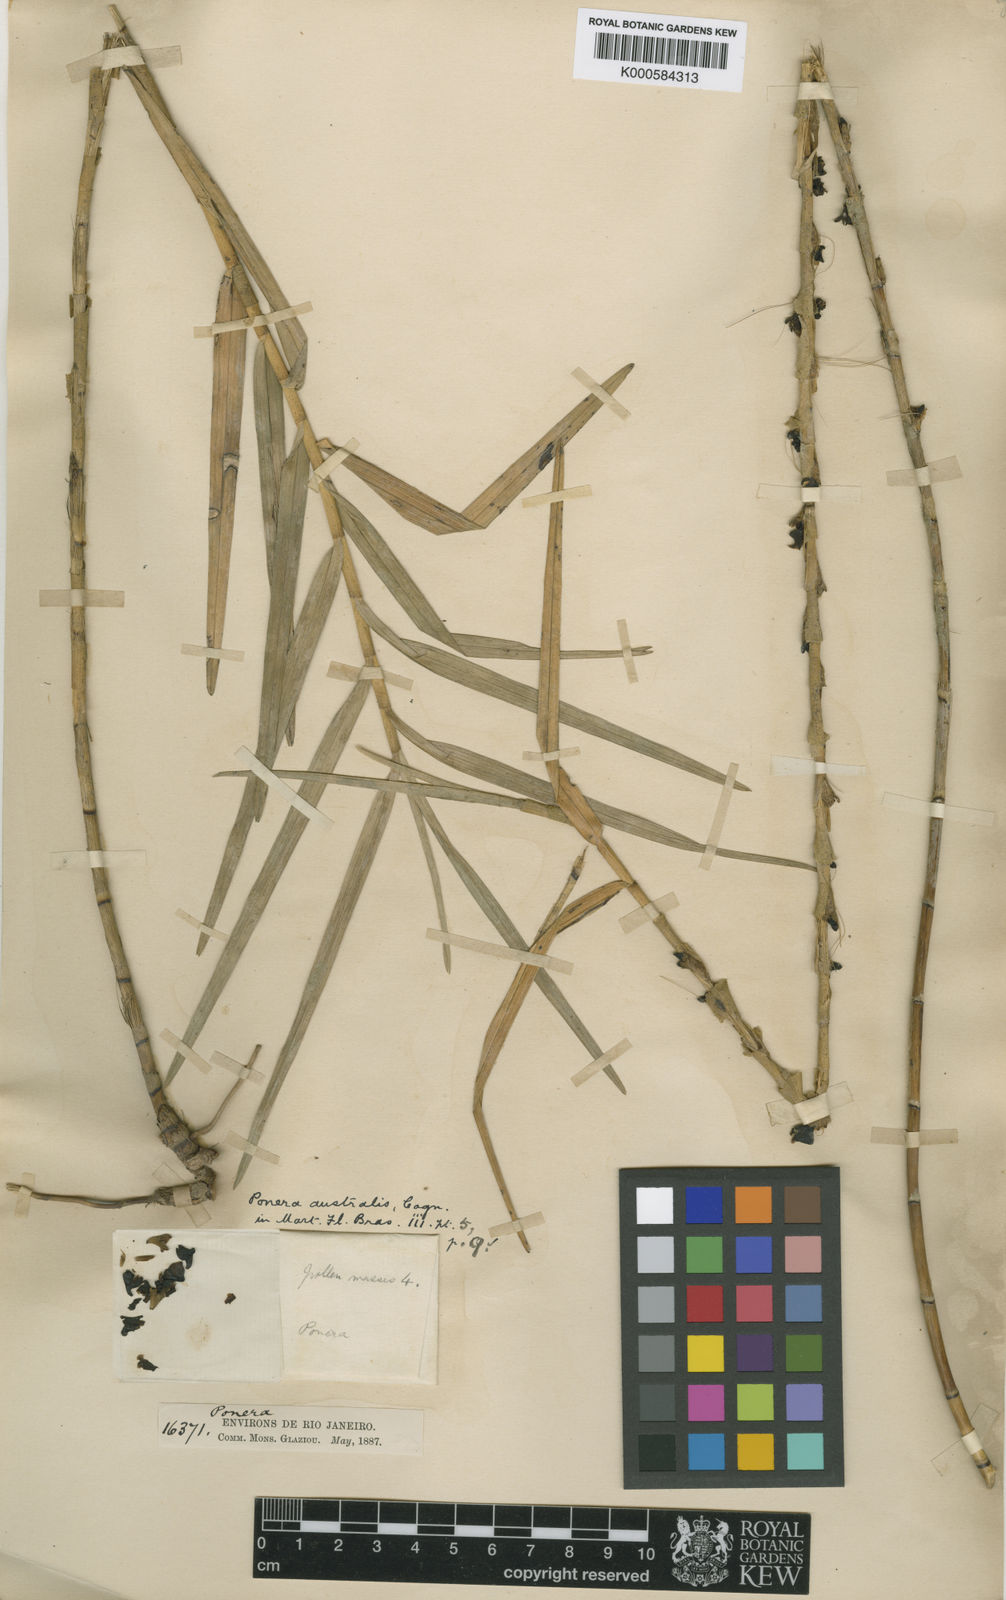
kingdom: Plantae
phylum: Tracheophyta
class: Liliopsida
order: Asparagales
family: Orchidaceae
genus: Nemaconia
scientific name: Nemaconia striata
